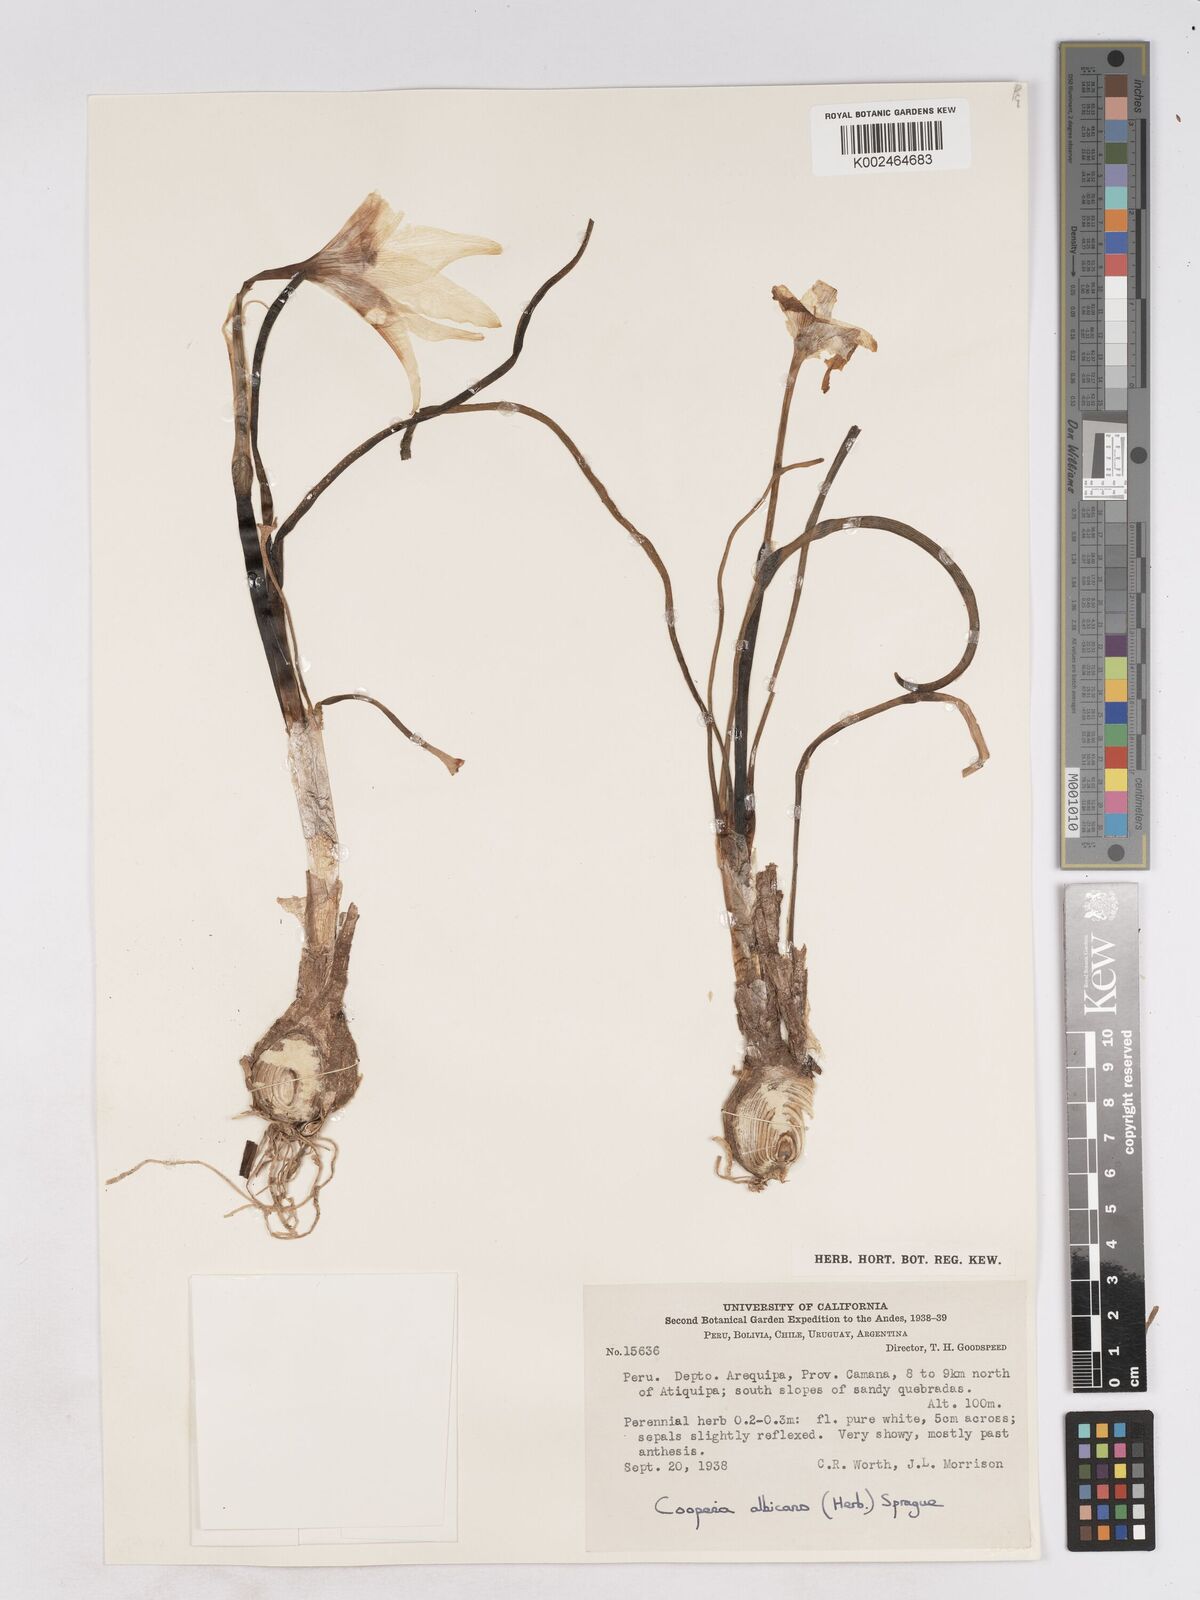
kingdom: Plantae
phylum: Tracheophyta
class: Liliopsida
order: Asparagales
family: Amaryllidaceae
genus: Pyrolirion
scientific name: Pyrolirion albicans
